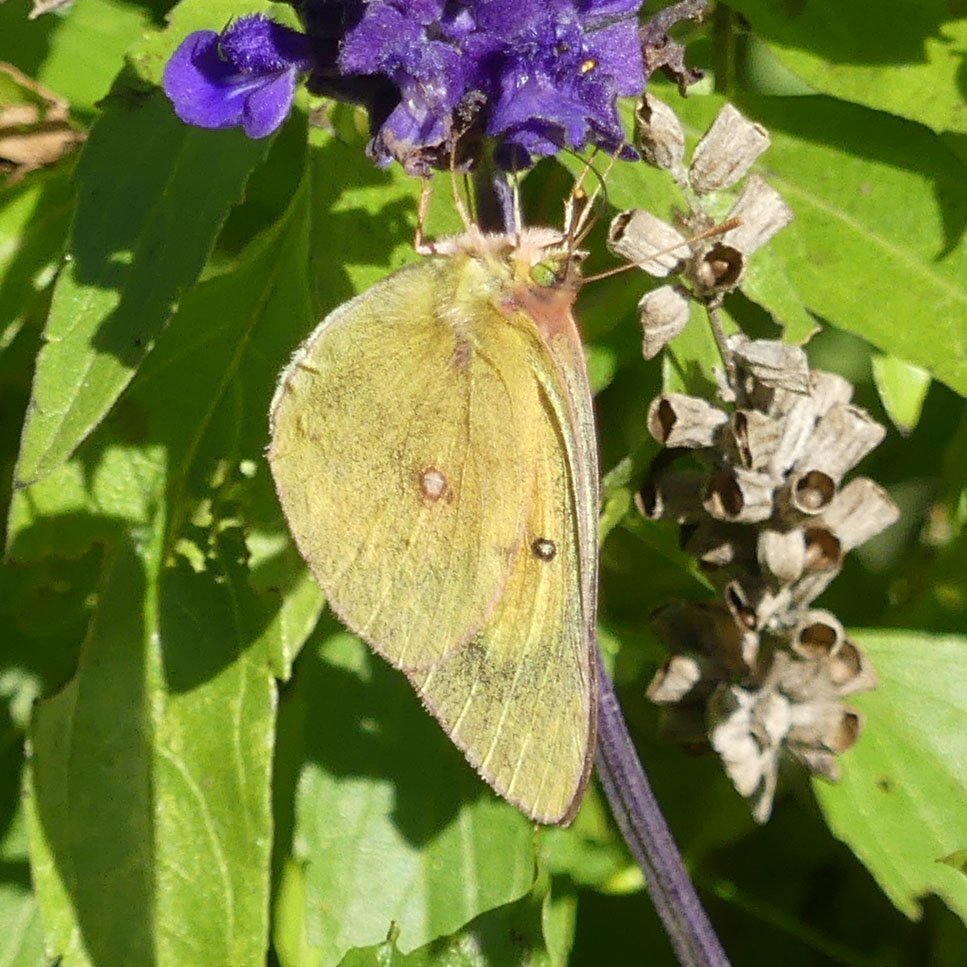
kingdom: Animalia
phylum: Arthropoda
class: Insecta
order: Lepidoptera
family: Pieridae
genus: Colias
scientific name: Colias eurytheme
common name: Orange Sulphur
